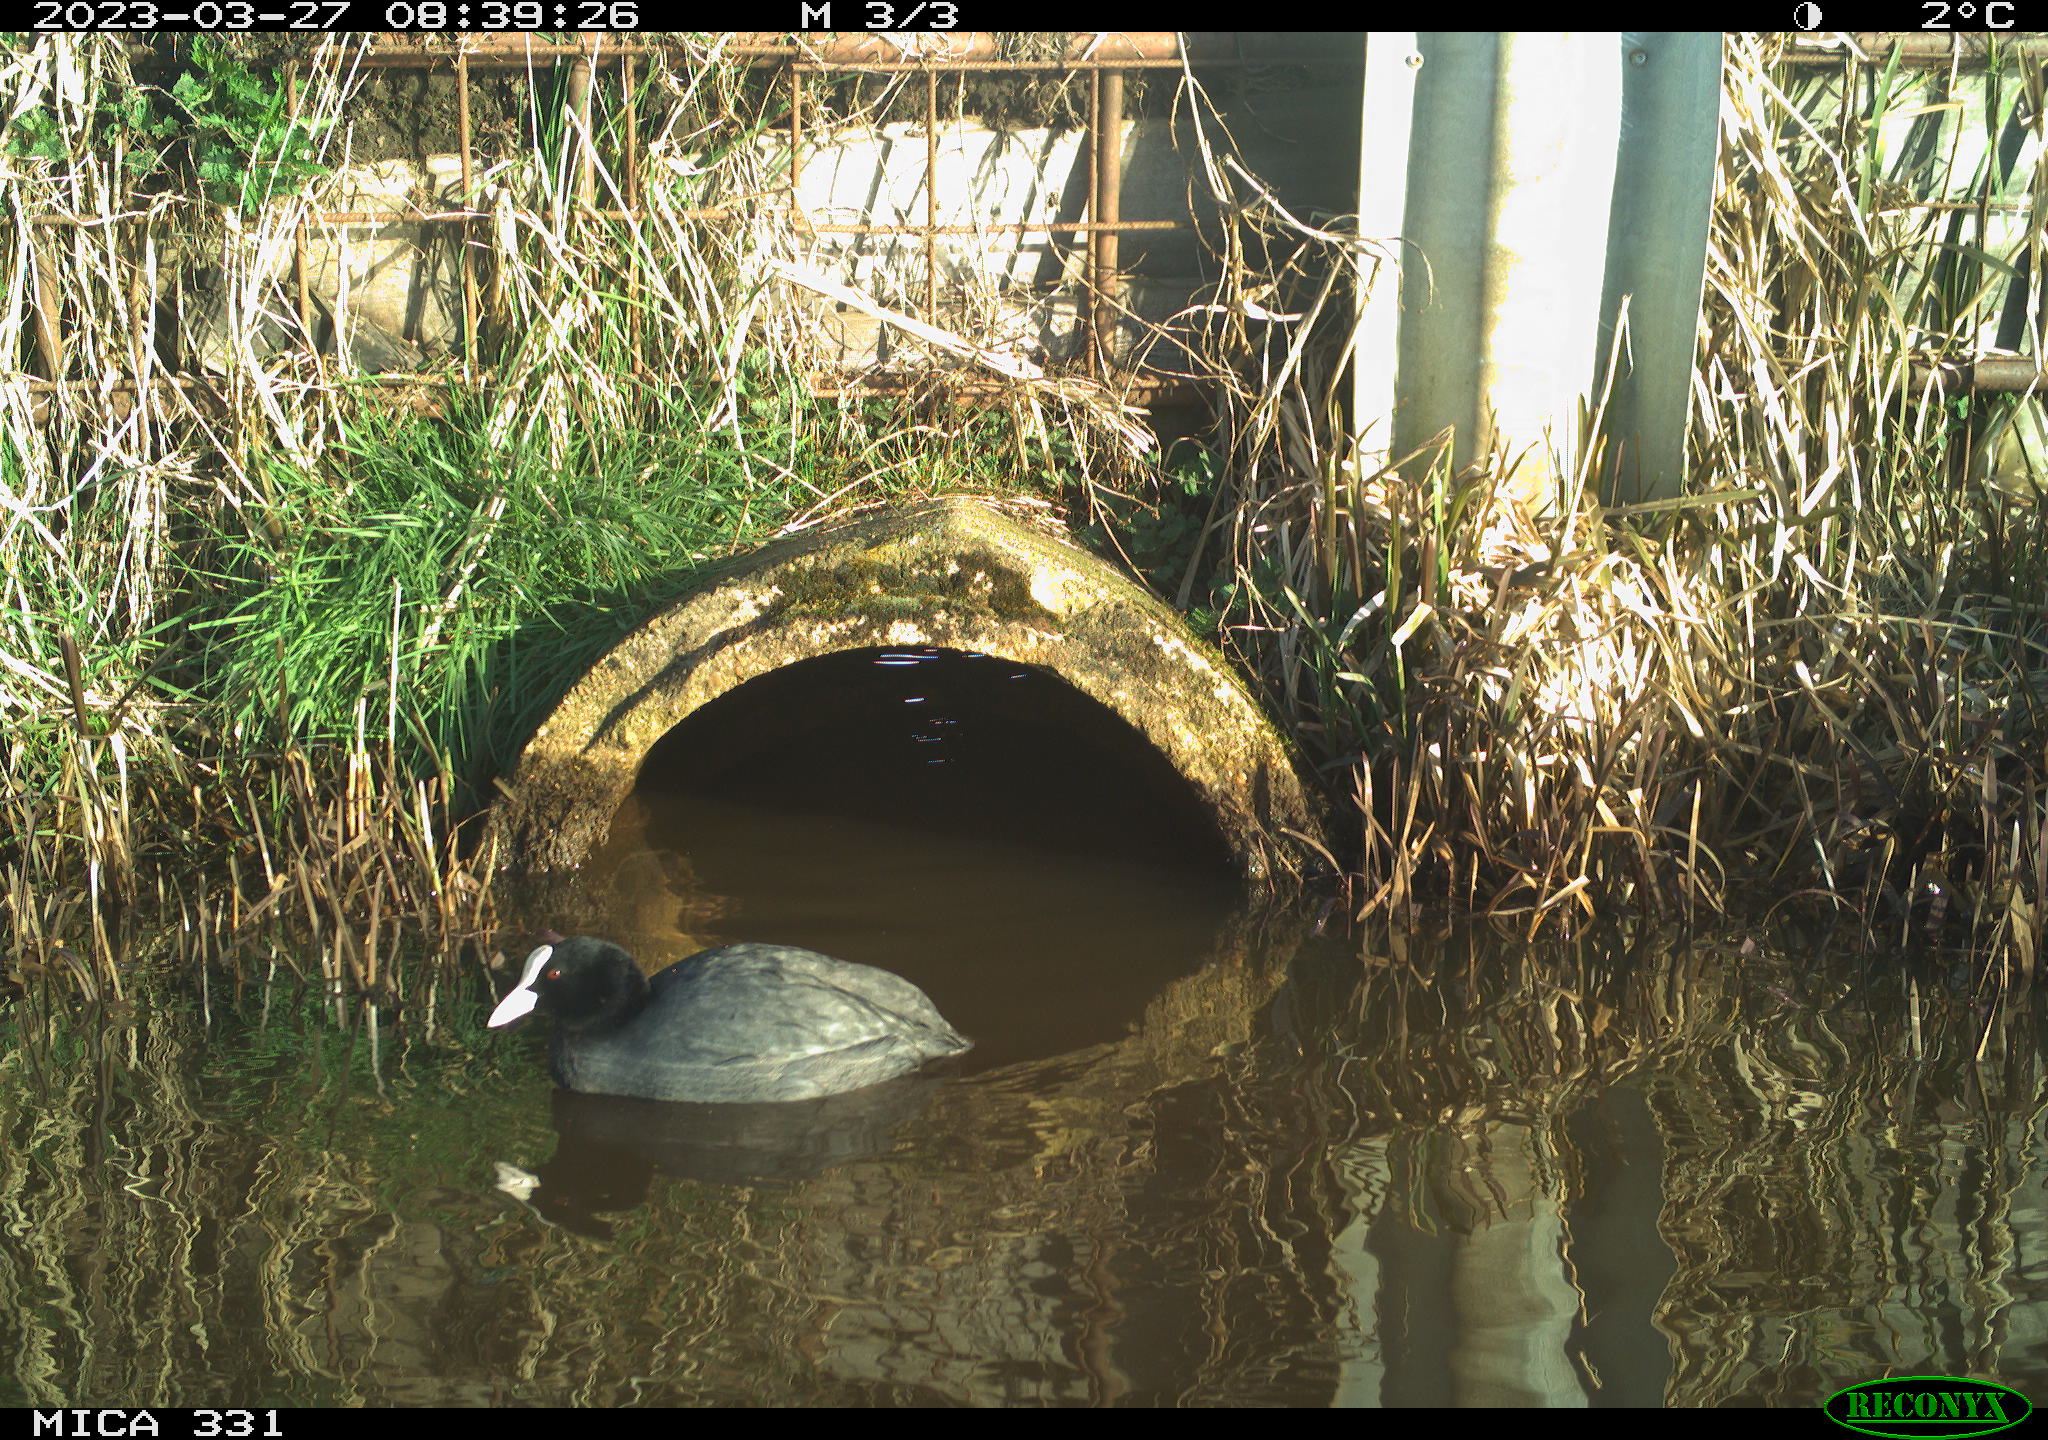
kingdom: Animalia
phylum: Chordata
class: Aves
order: Gruiformes
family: Rallidae
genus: Fulica
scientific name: Fulica atra
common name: Eurasian coot
